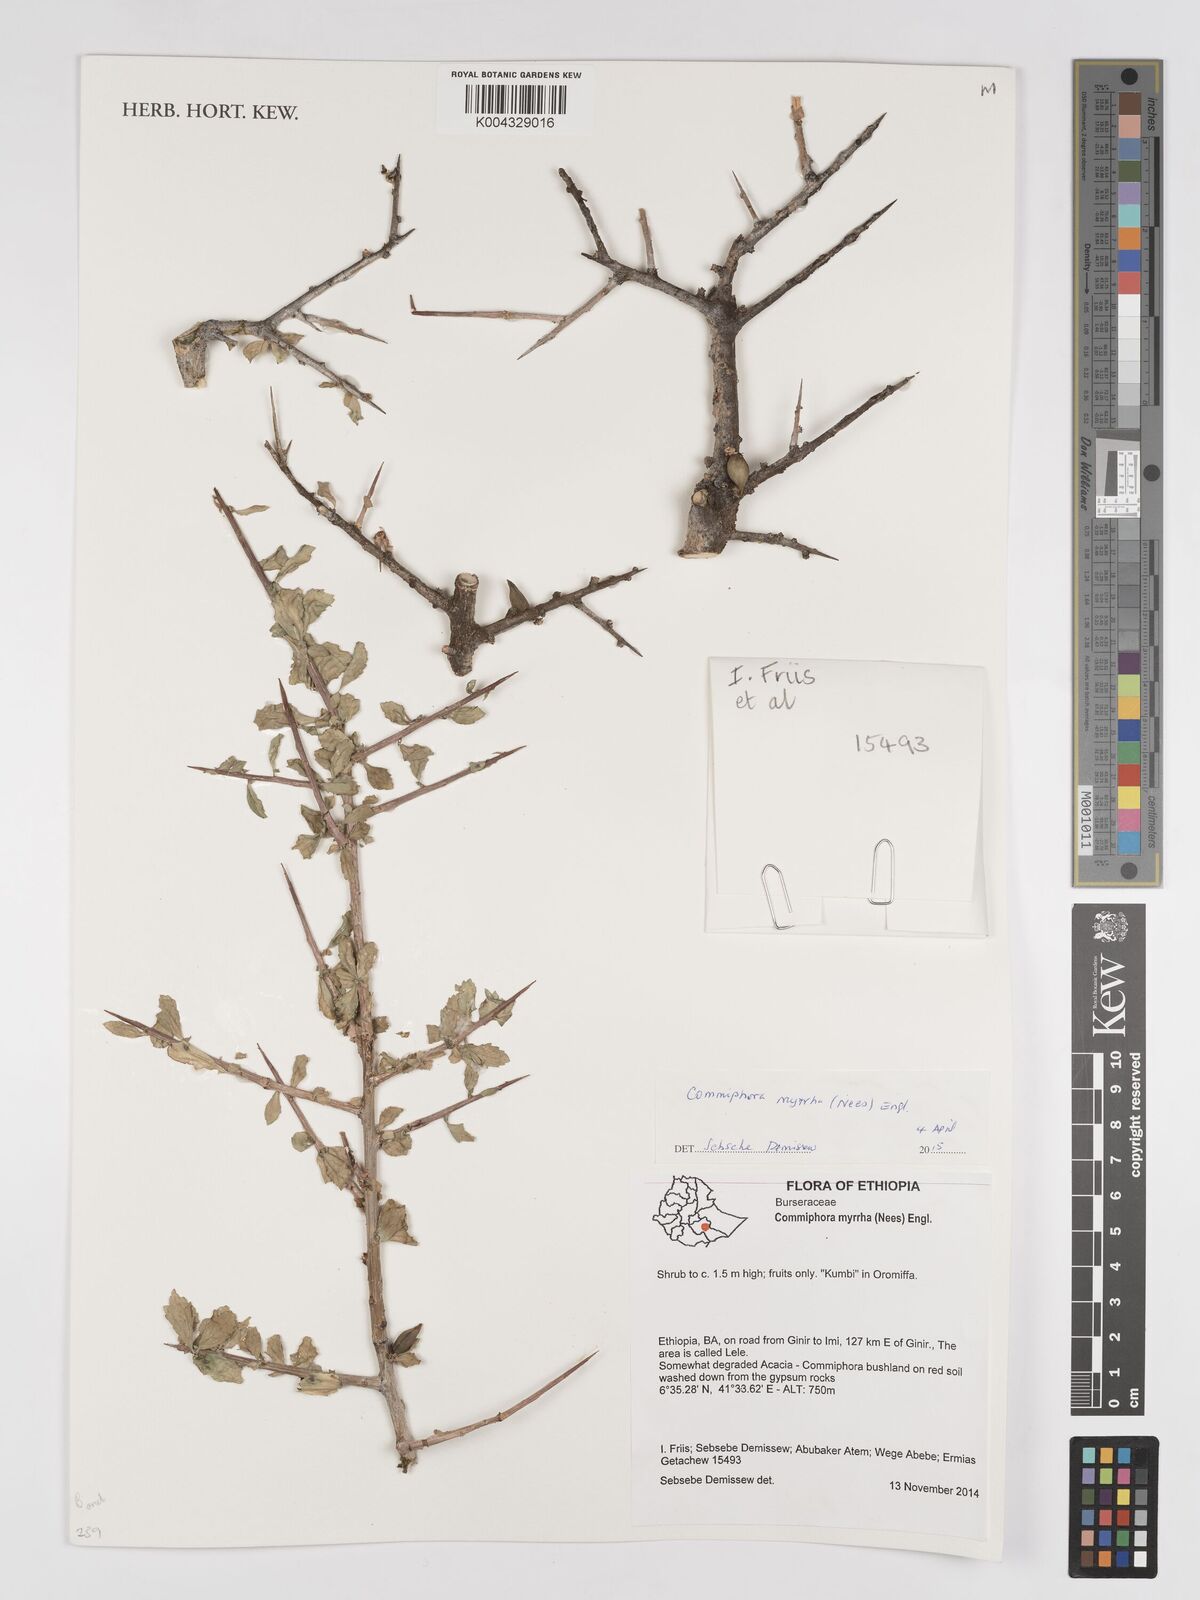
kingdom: Plantae
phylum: Tracheophyta
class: Magnoliopsida
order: Sapindales
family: Burseraceae
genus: Commiphora
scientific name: Commiphora myrrha
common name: African myrrh
